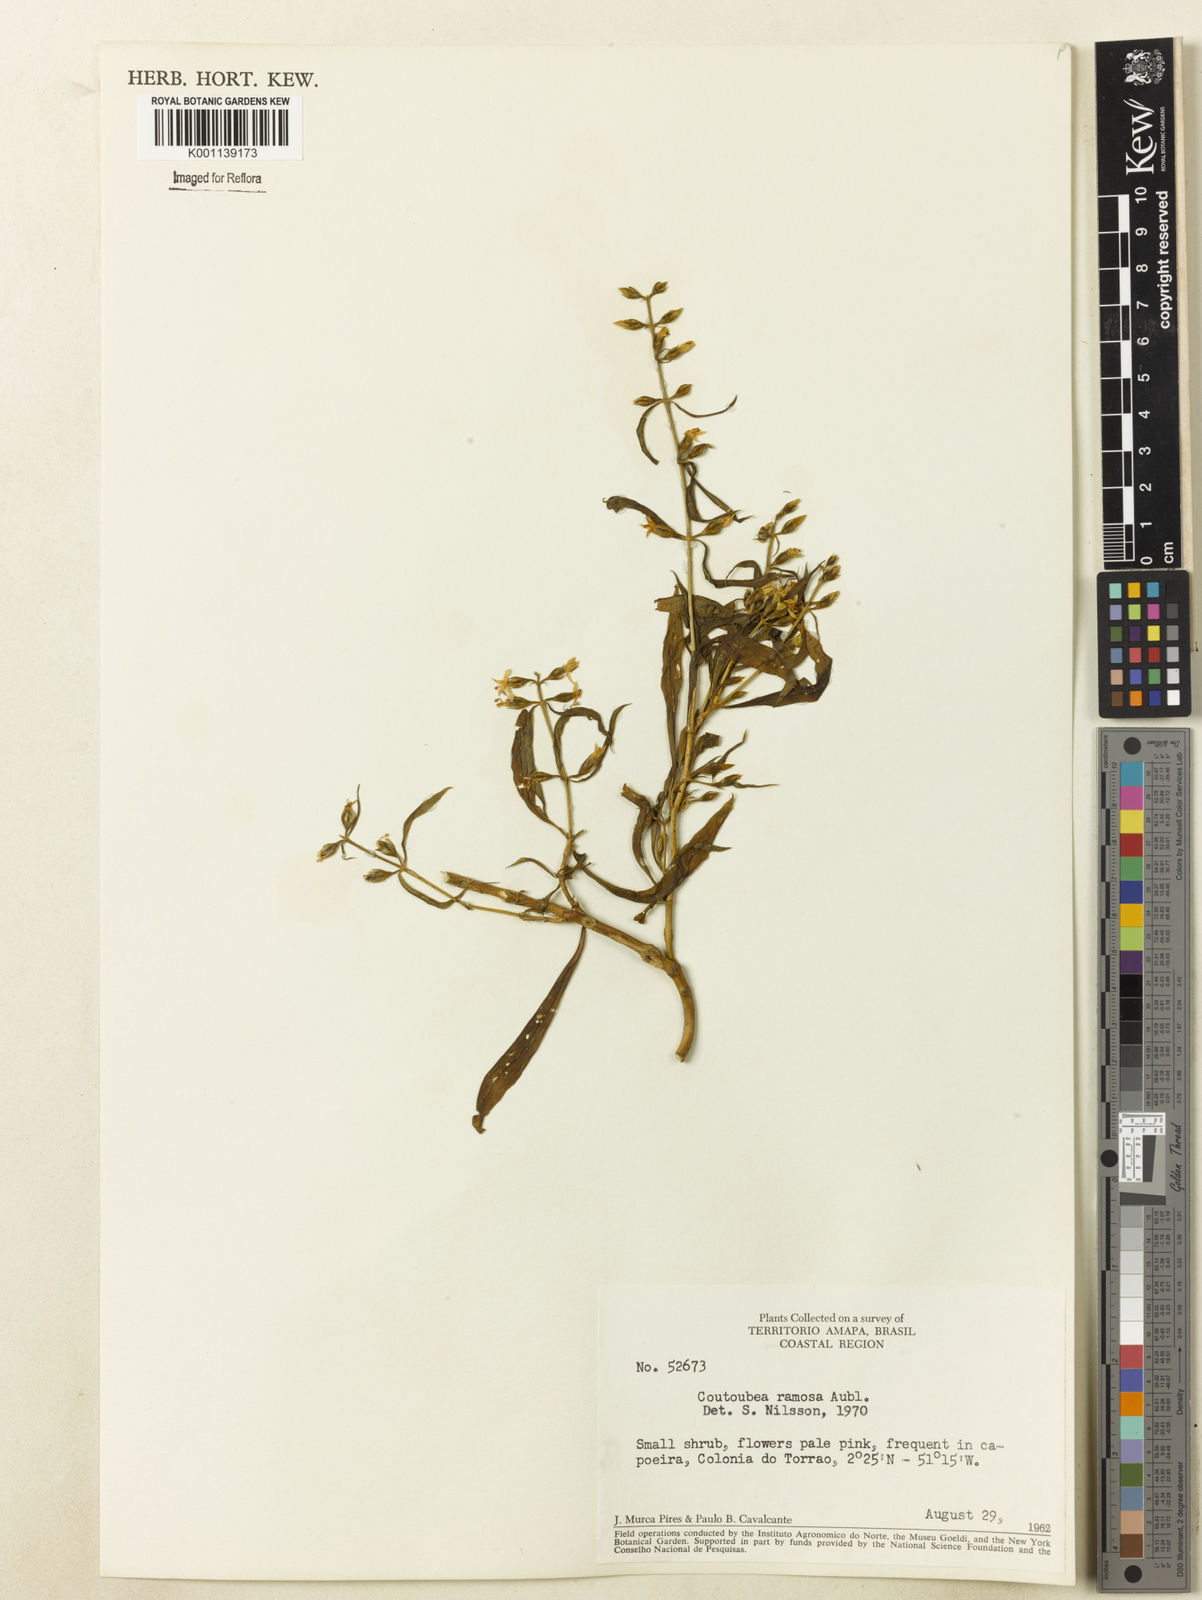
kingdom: Plantae
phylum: Tracheophyta
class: Magnoliopsida
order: Gentianales
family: Gentianaceae
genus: Coutoubea
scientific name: Coutoubea ramosa
